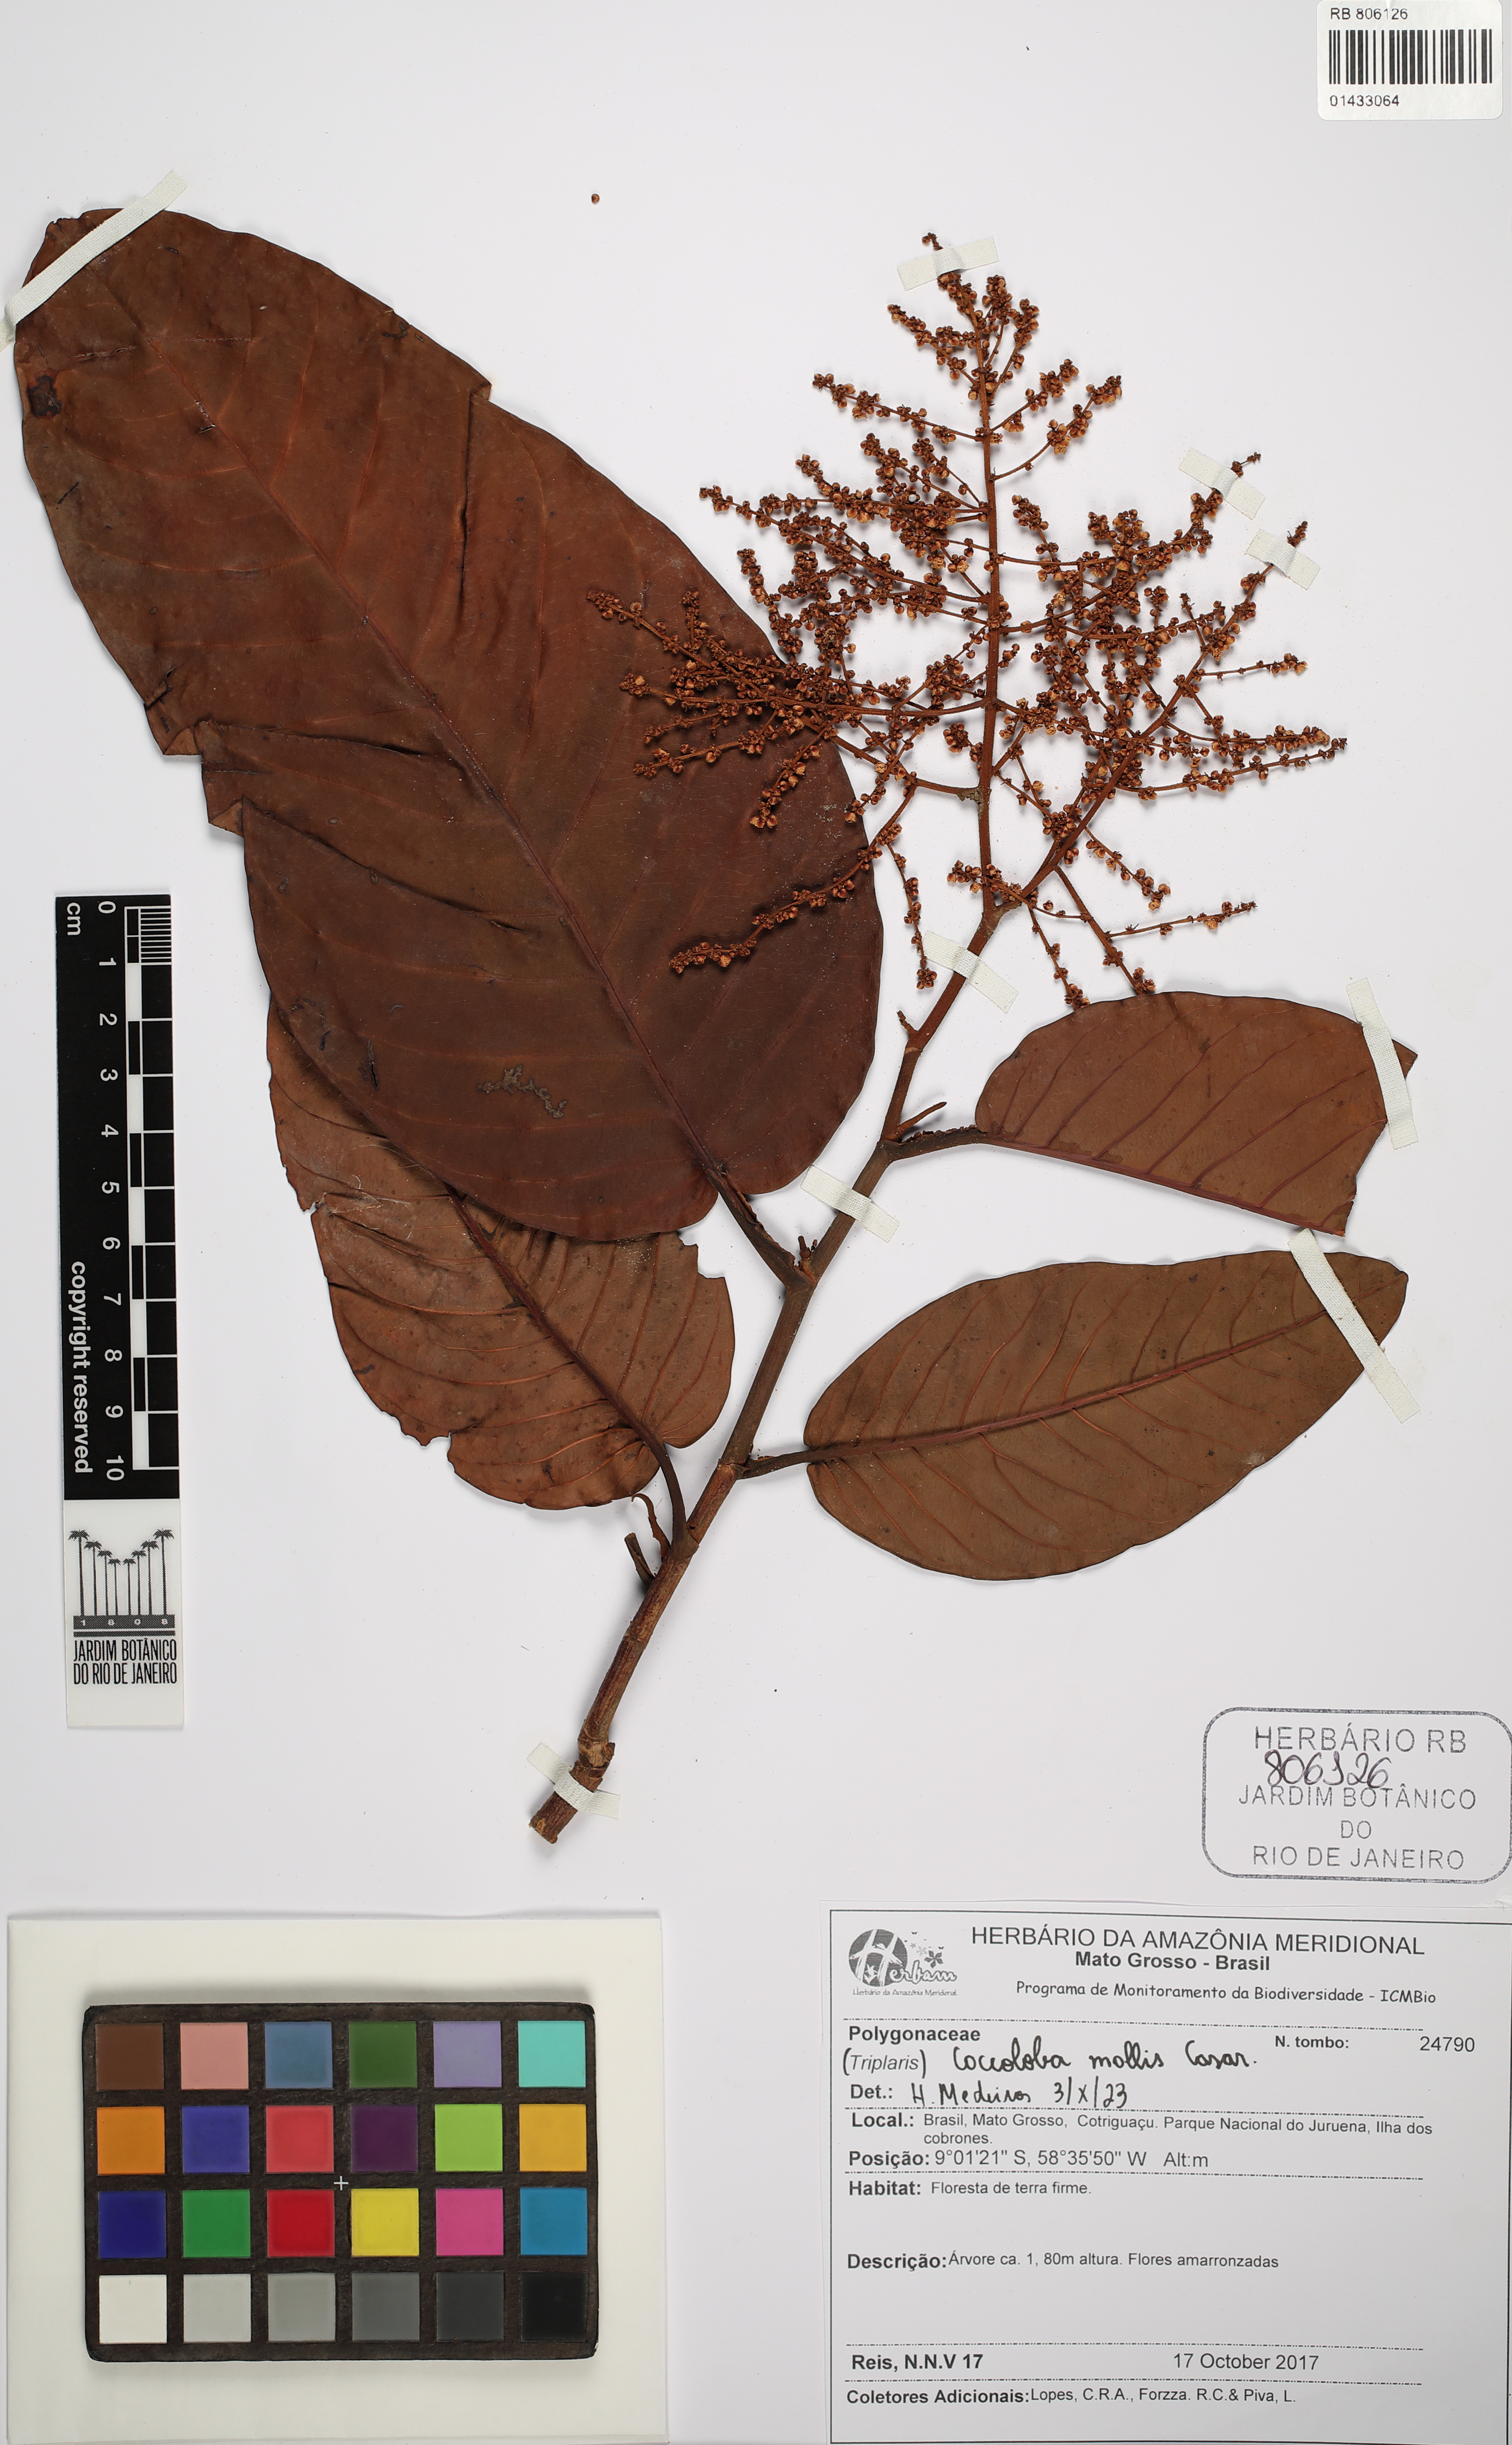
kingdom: Plantae
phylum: Tracheophyta
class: Magnoliopsida
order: Caryophyllales
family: Polygonaceae
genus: Coccoloba
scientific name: Coccoloba mollis
